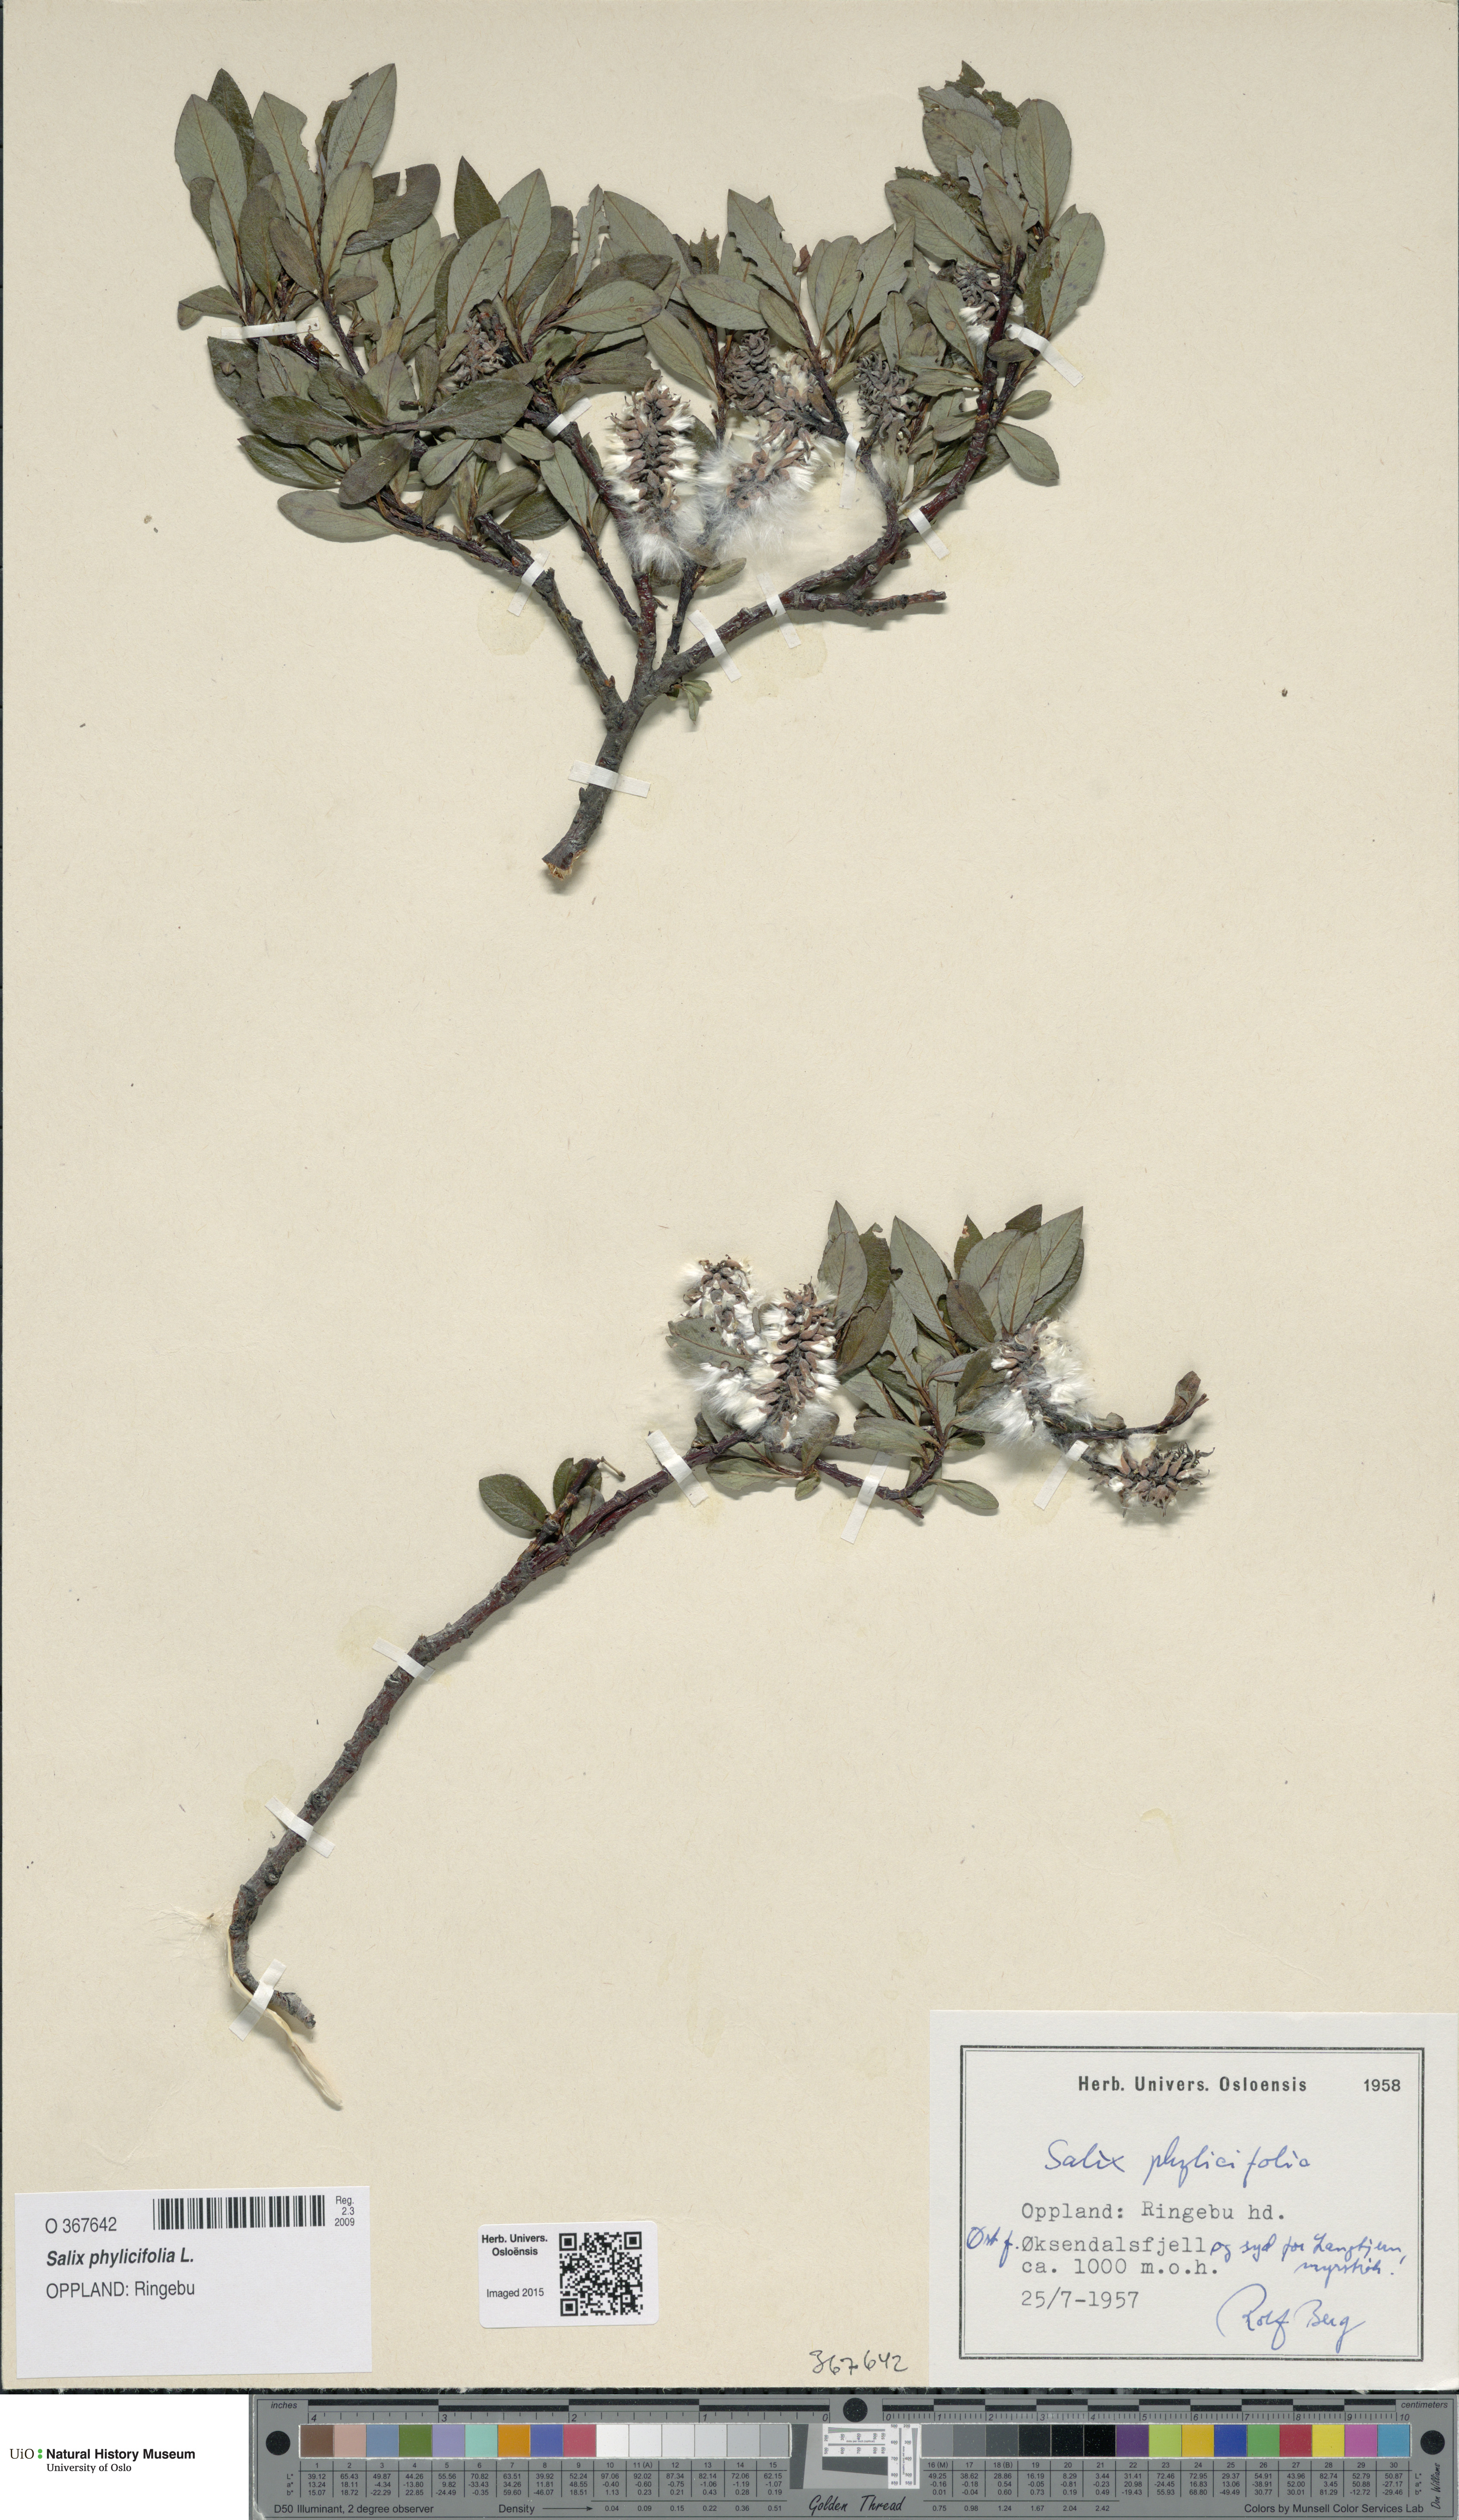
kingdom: Plantae
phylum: Tracheophyta
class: Magnoliopsida
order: Malpighiales
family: Salicaceae
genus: Salix
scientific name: Salix phylicifolia
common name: Tea-leaved willow
